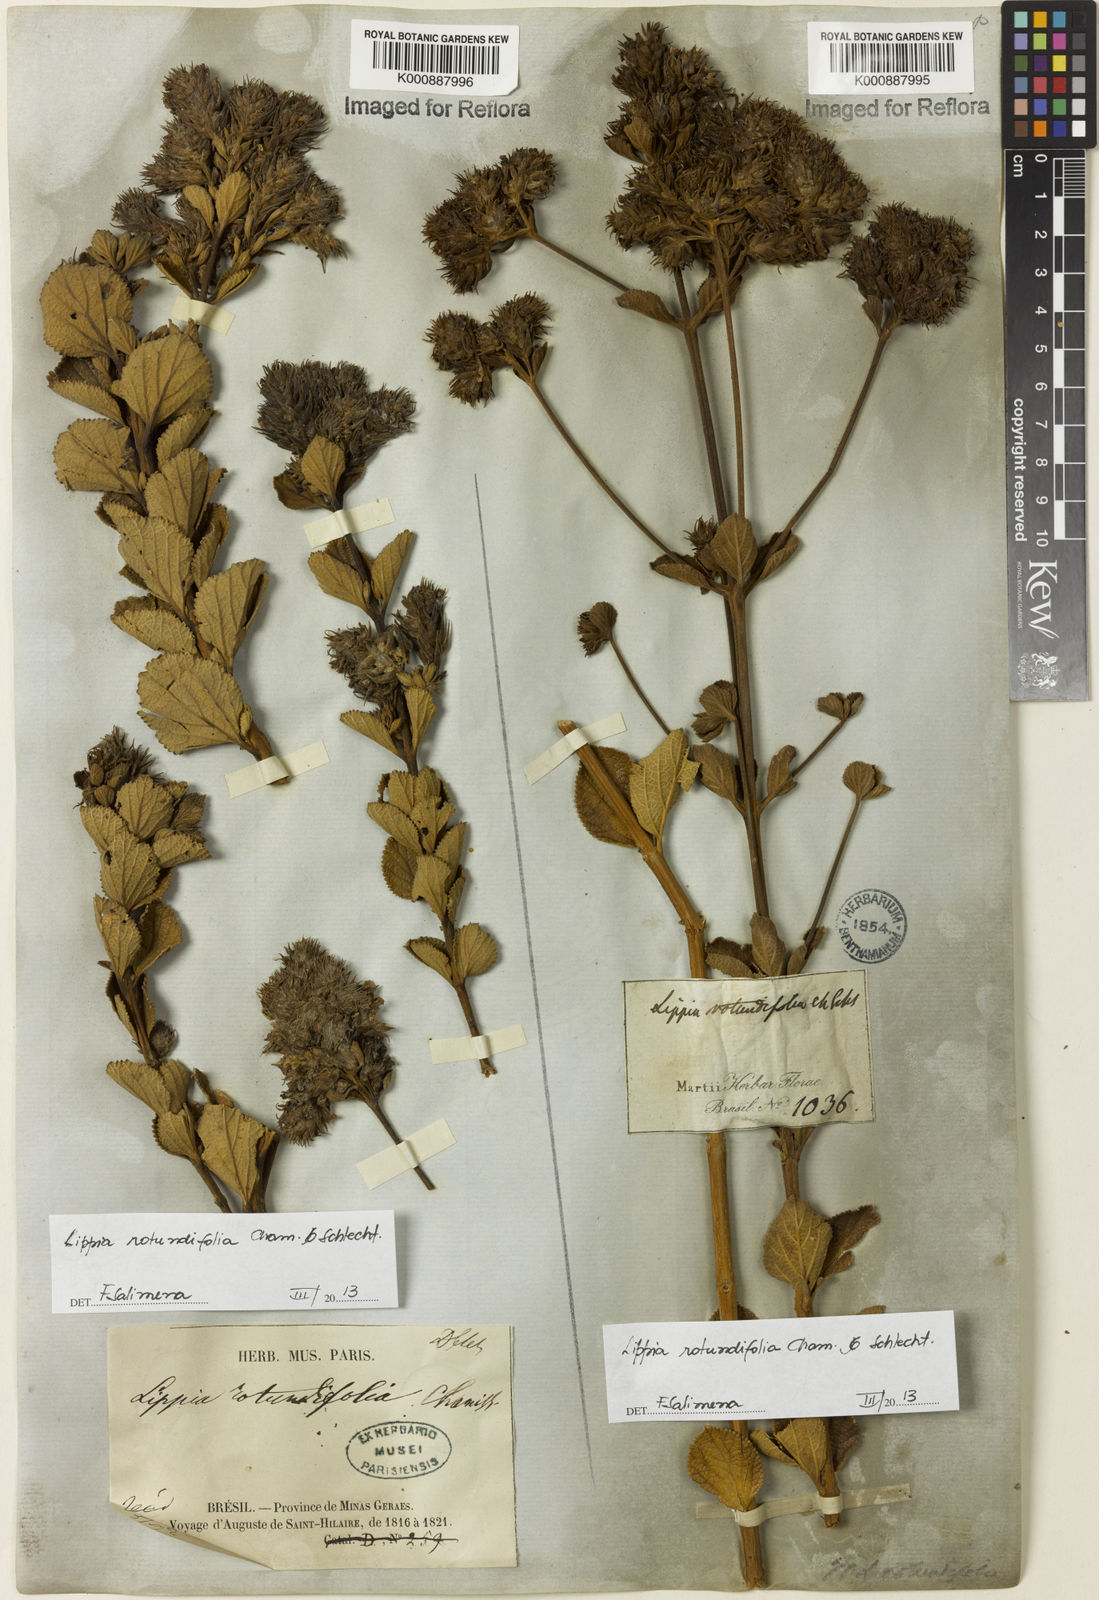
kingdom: Plantae
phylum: Tracheophyta
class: Magnoliopsida
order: Lamiales
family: Verbenaceae
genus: Lippia
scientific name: Lippia rotundifolia
